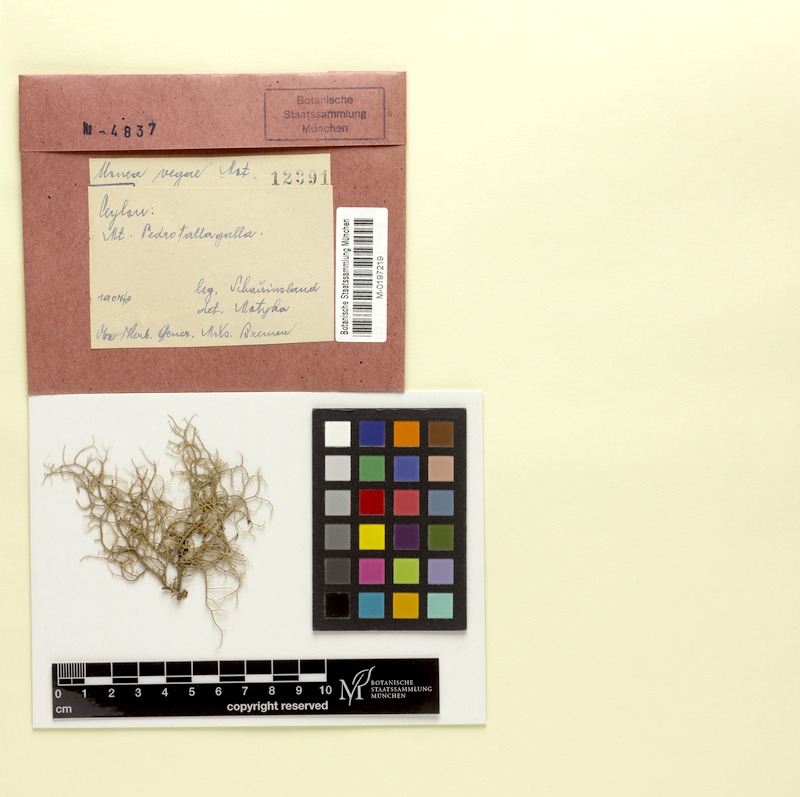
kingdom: Fungi
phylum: Ascomycota
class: Lecanoromycetes
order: Lecanorales
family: Parmeliaceae
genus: Usnea
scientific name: Usnea
